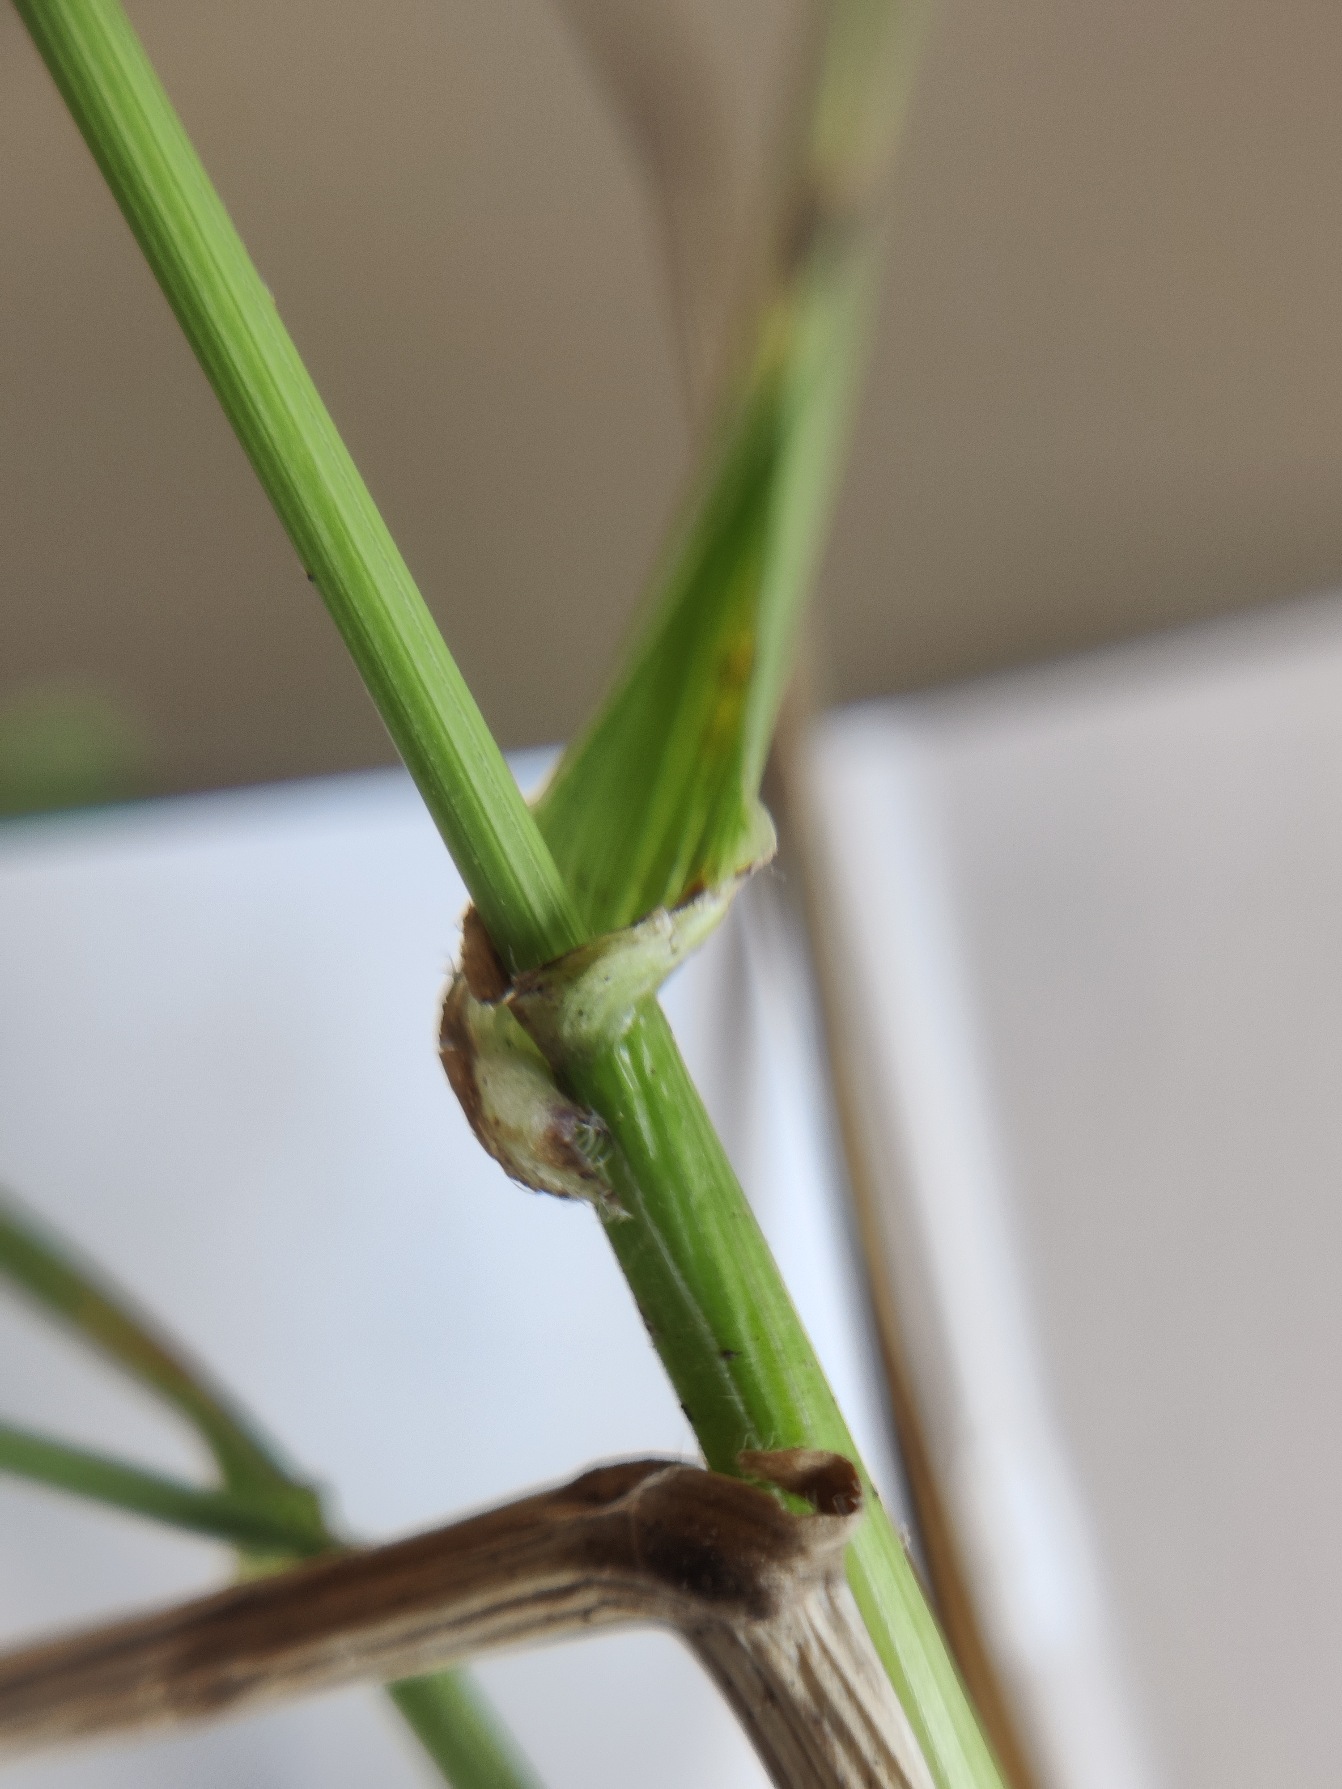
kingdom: Plantae
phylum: Tracheophyta
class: Liliopsida
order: Poales
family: Poaceae
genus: Lolium
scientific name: Lolium arundinaceum
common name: Strand-svingel
